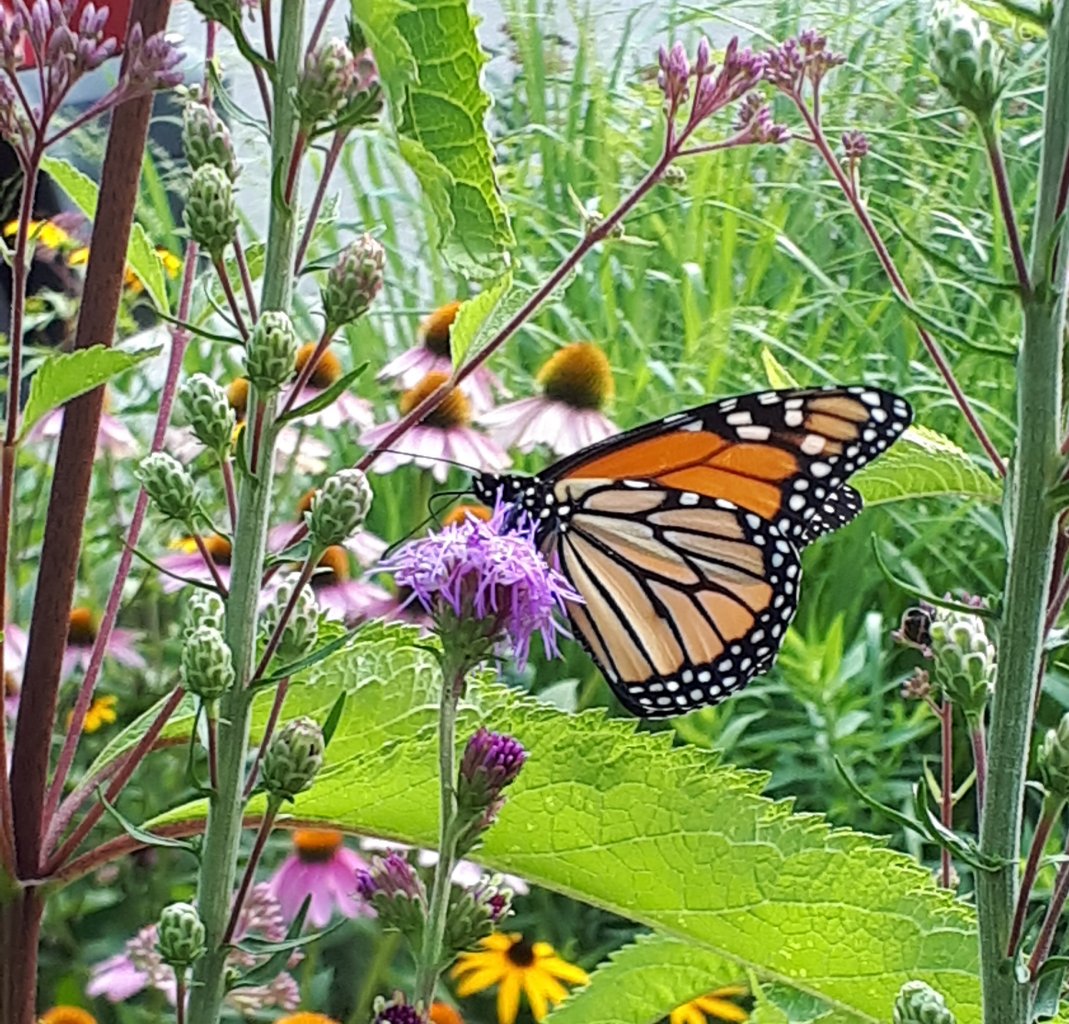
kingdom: Animalia
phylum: Arthropoda
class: Insecta
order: Lepidoptera
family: Nymphalidae
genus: Danaus
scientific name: Danaus plexippus
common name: Monarch
